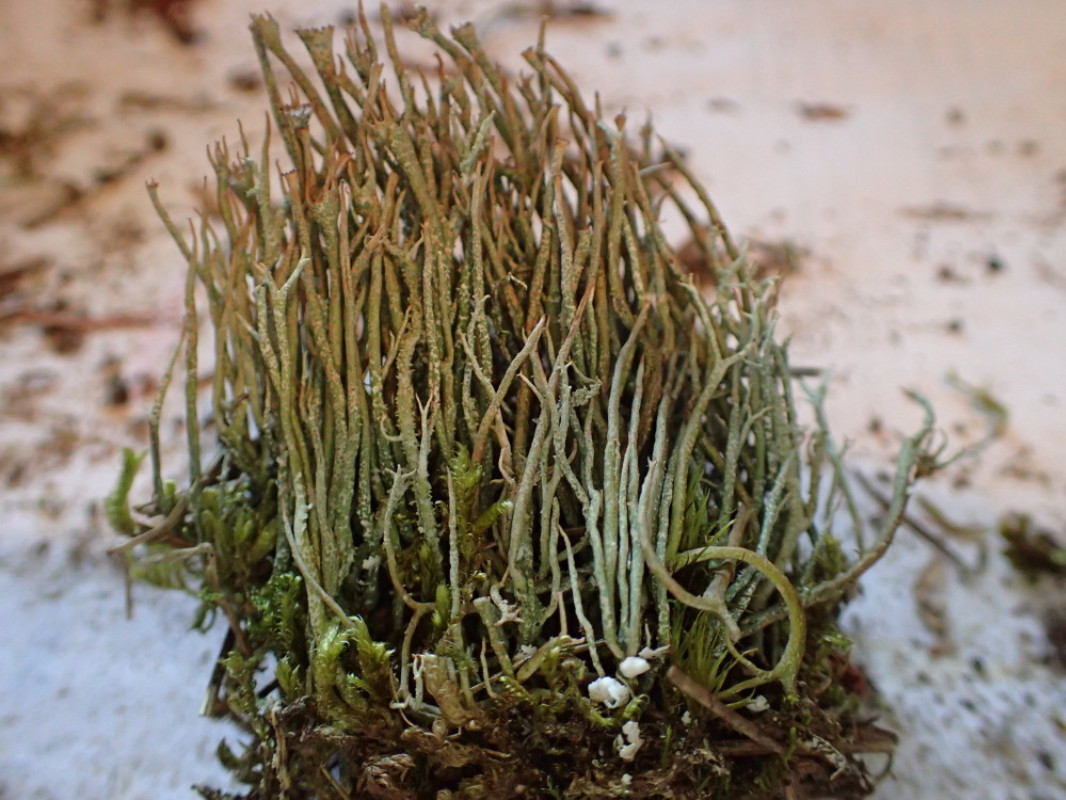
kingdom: Fungi
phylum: Ascomycota
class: Lecanoromycetes
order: Lecanorales
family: Cladoniaceae
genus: Cladonia
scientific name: Cladonia gracilis
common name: slank bægerlav
